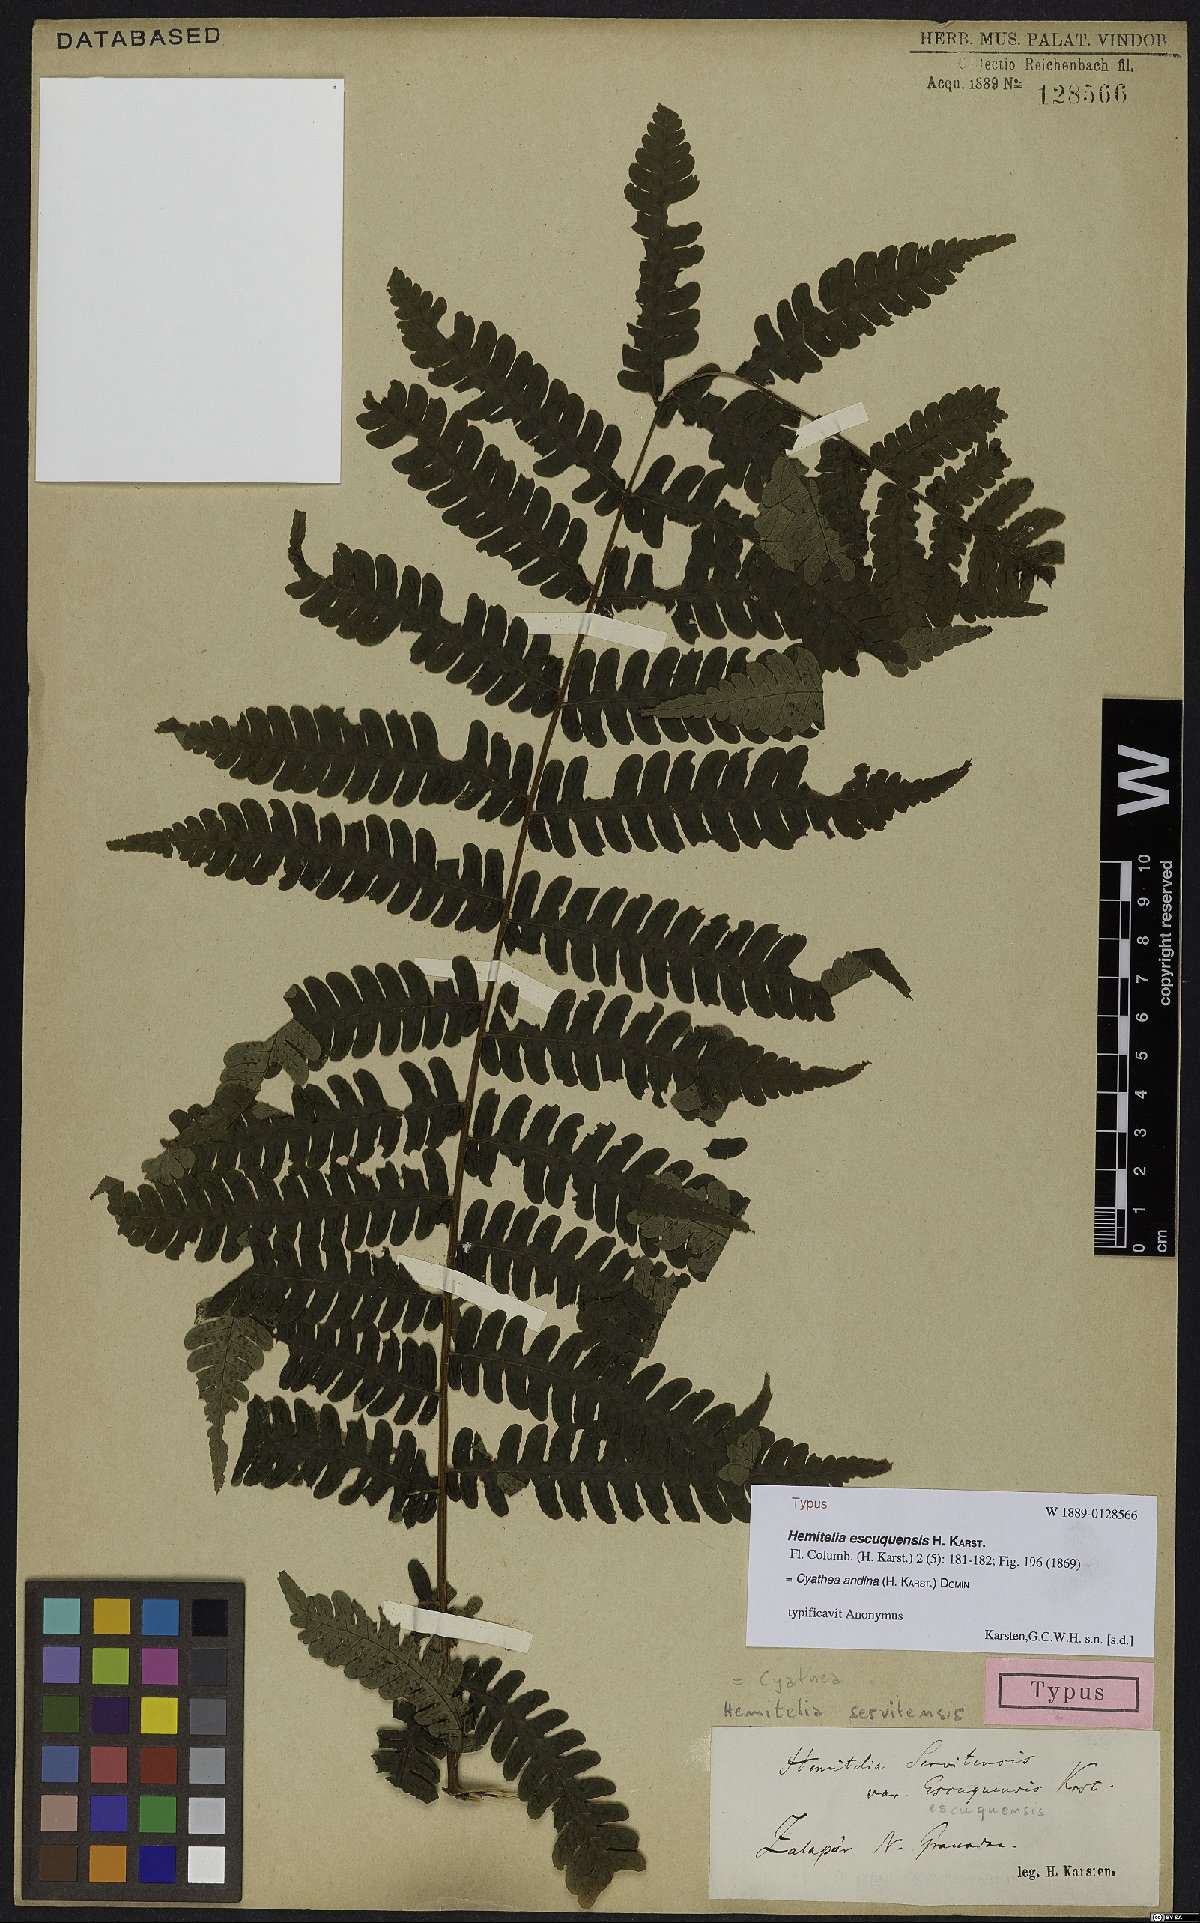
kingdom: Plantae
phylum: Tracheophyta
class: Polypodiopsida
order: Cyatheales
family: Cyatheaceae
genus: Cyathea
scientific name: Cyathea andina
